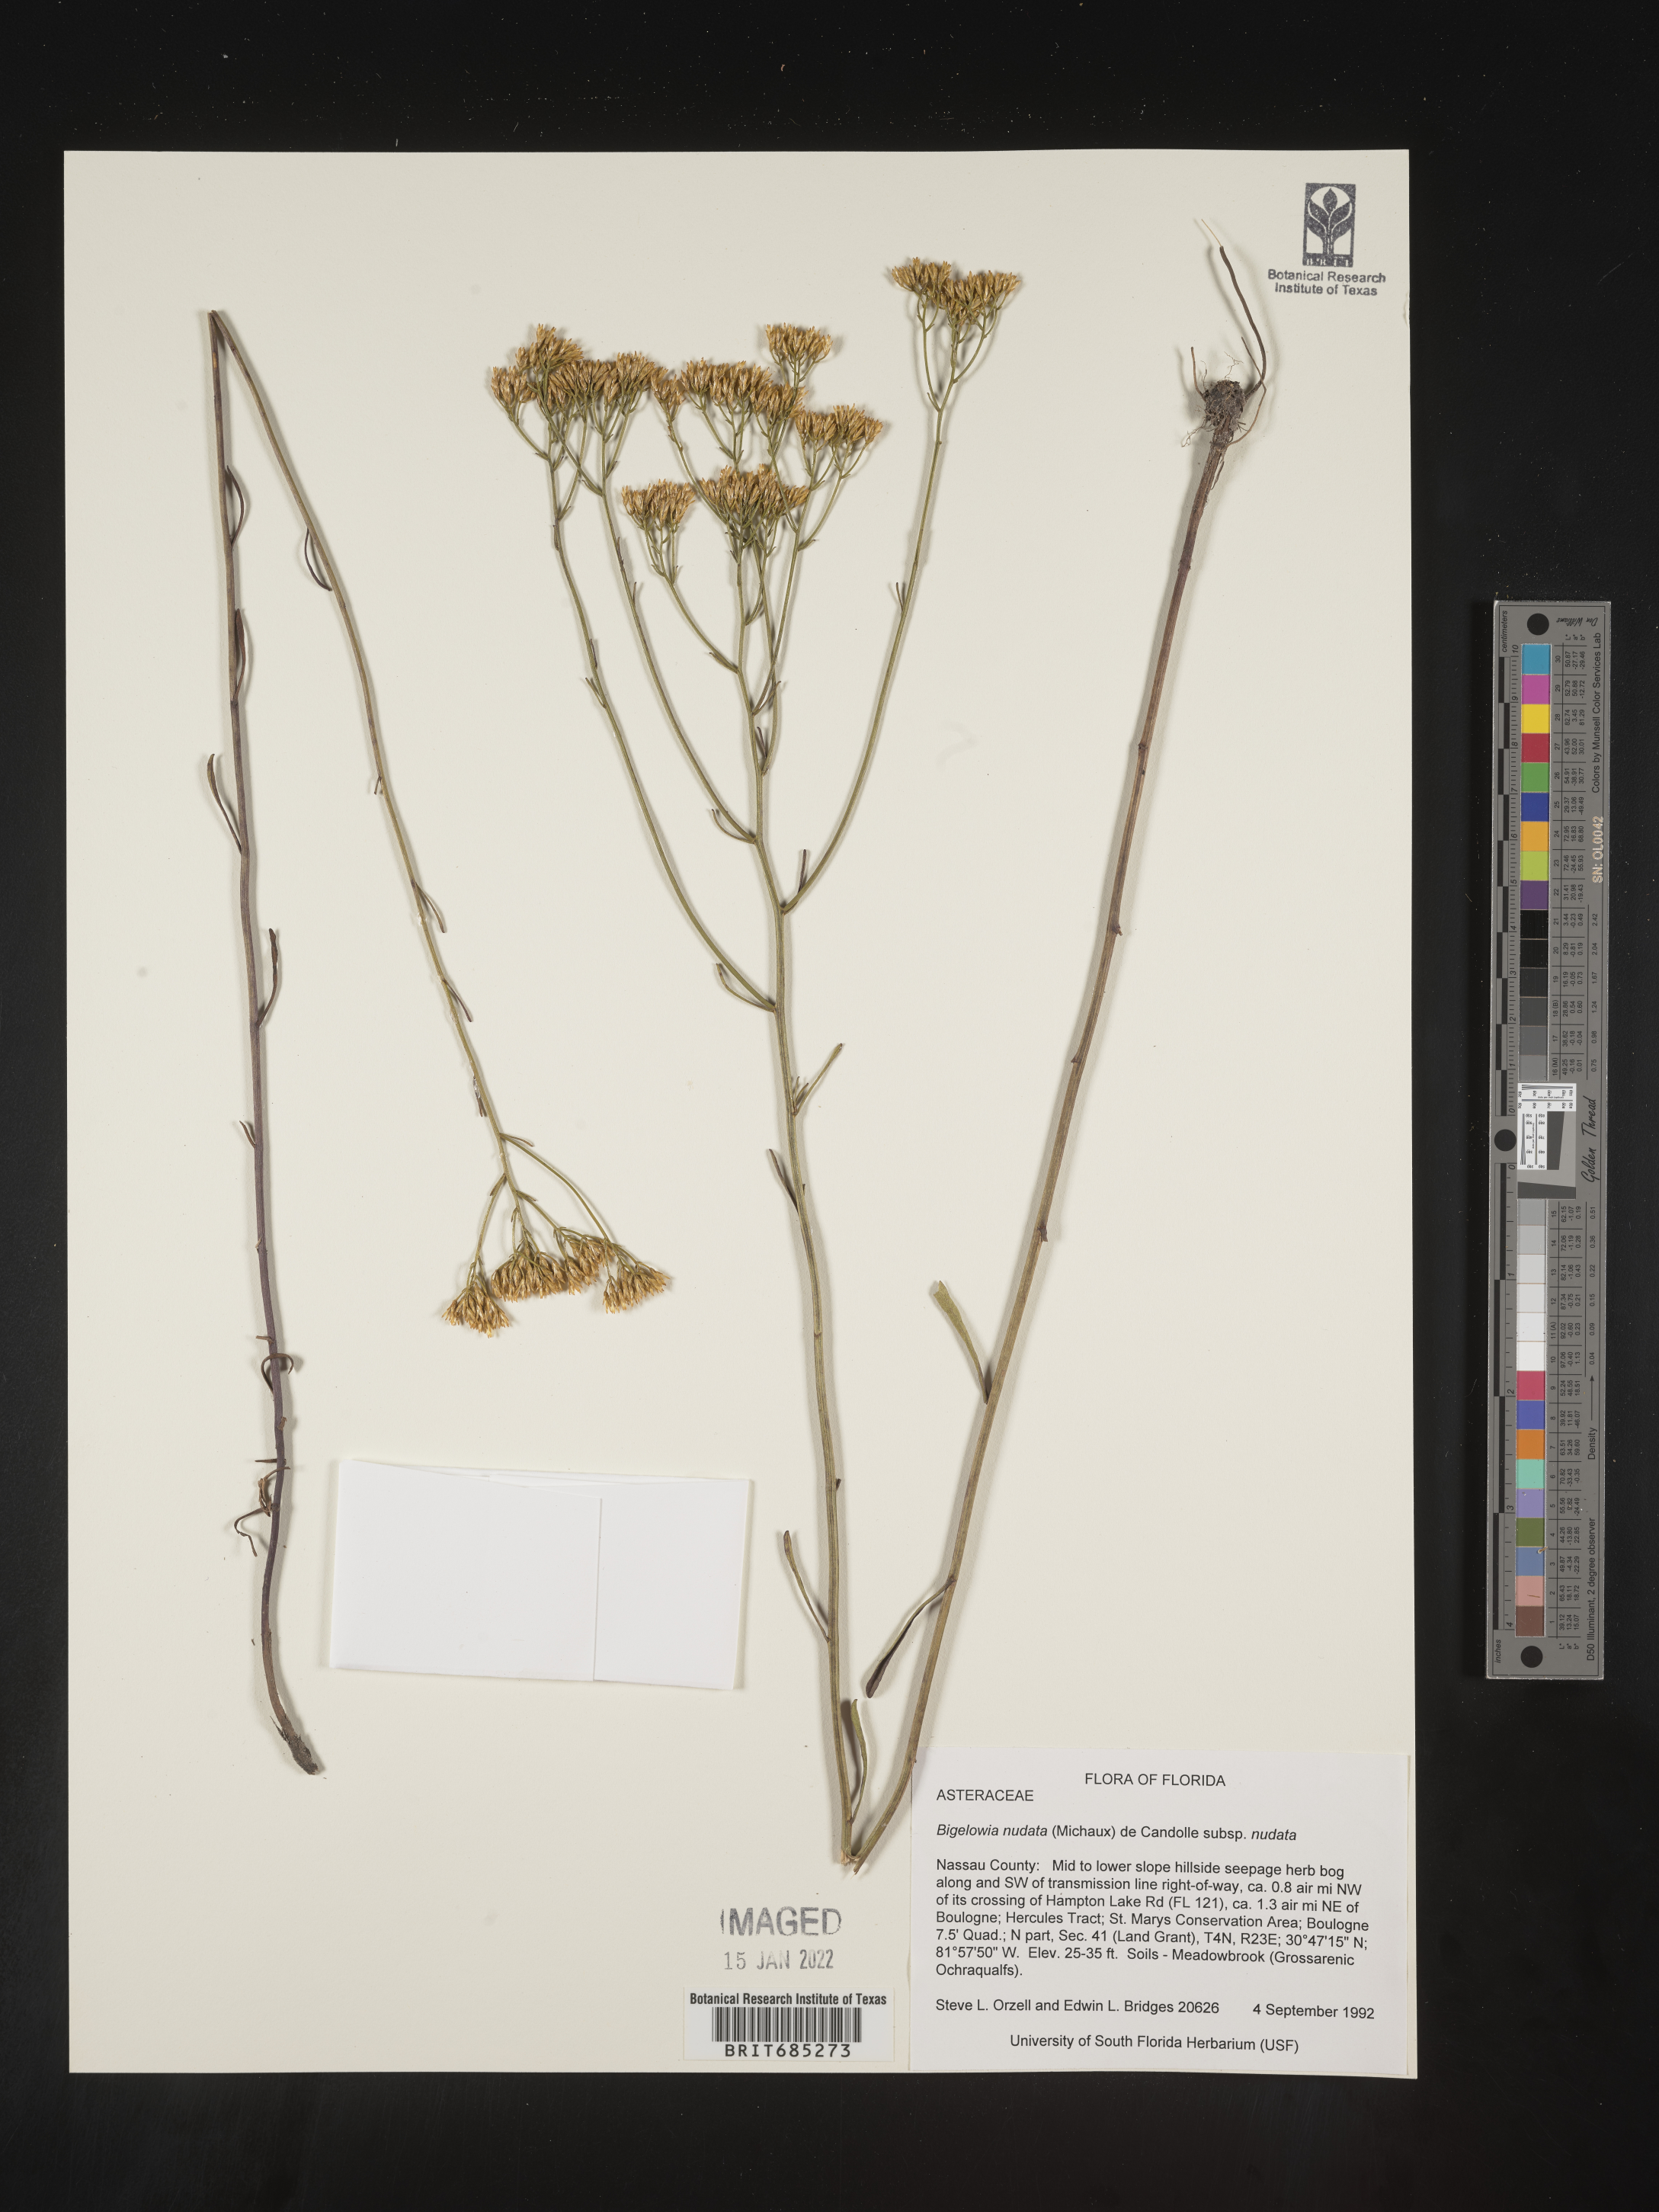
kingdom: Plantae
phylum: Tracheophyta
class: Magnoliopsida
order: Asterales
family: Asteraceae
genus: Bigelowia
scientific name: Bigelowia nudata
